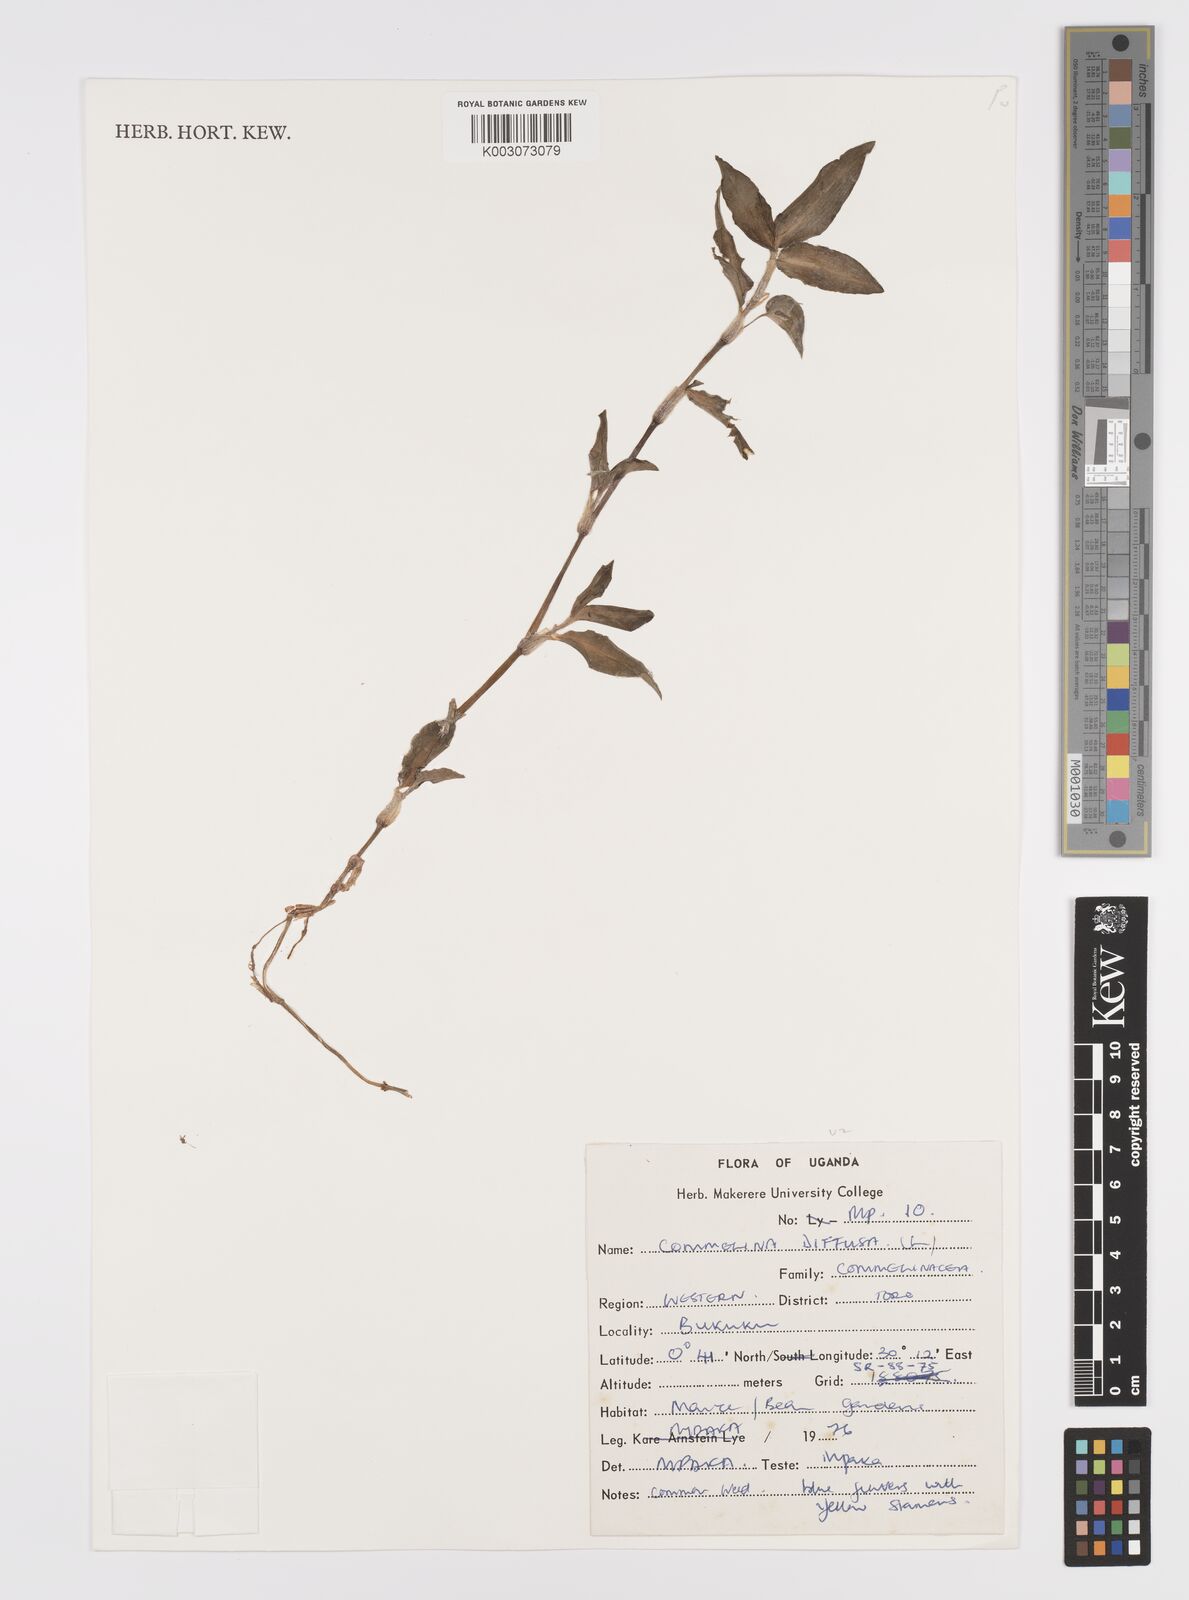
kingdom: Plantae
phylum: Tracheophyta
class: Liliopsida
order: Commelinales
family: Commelinaceae
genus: Commelina
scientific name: Commelina diffusa
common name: Climbing dayflower
